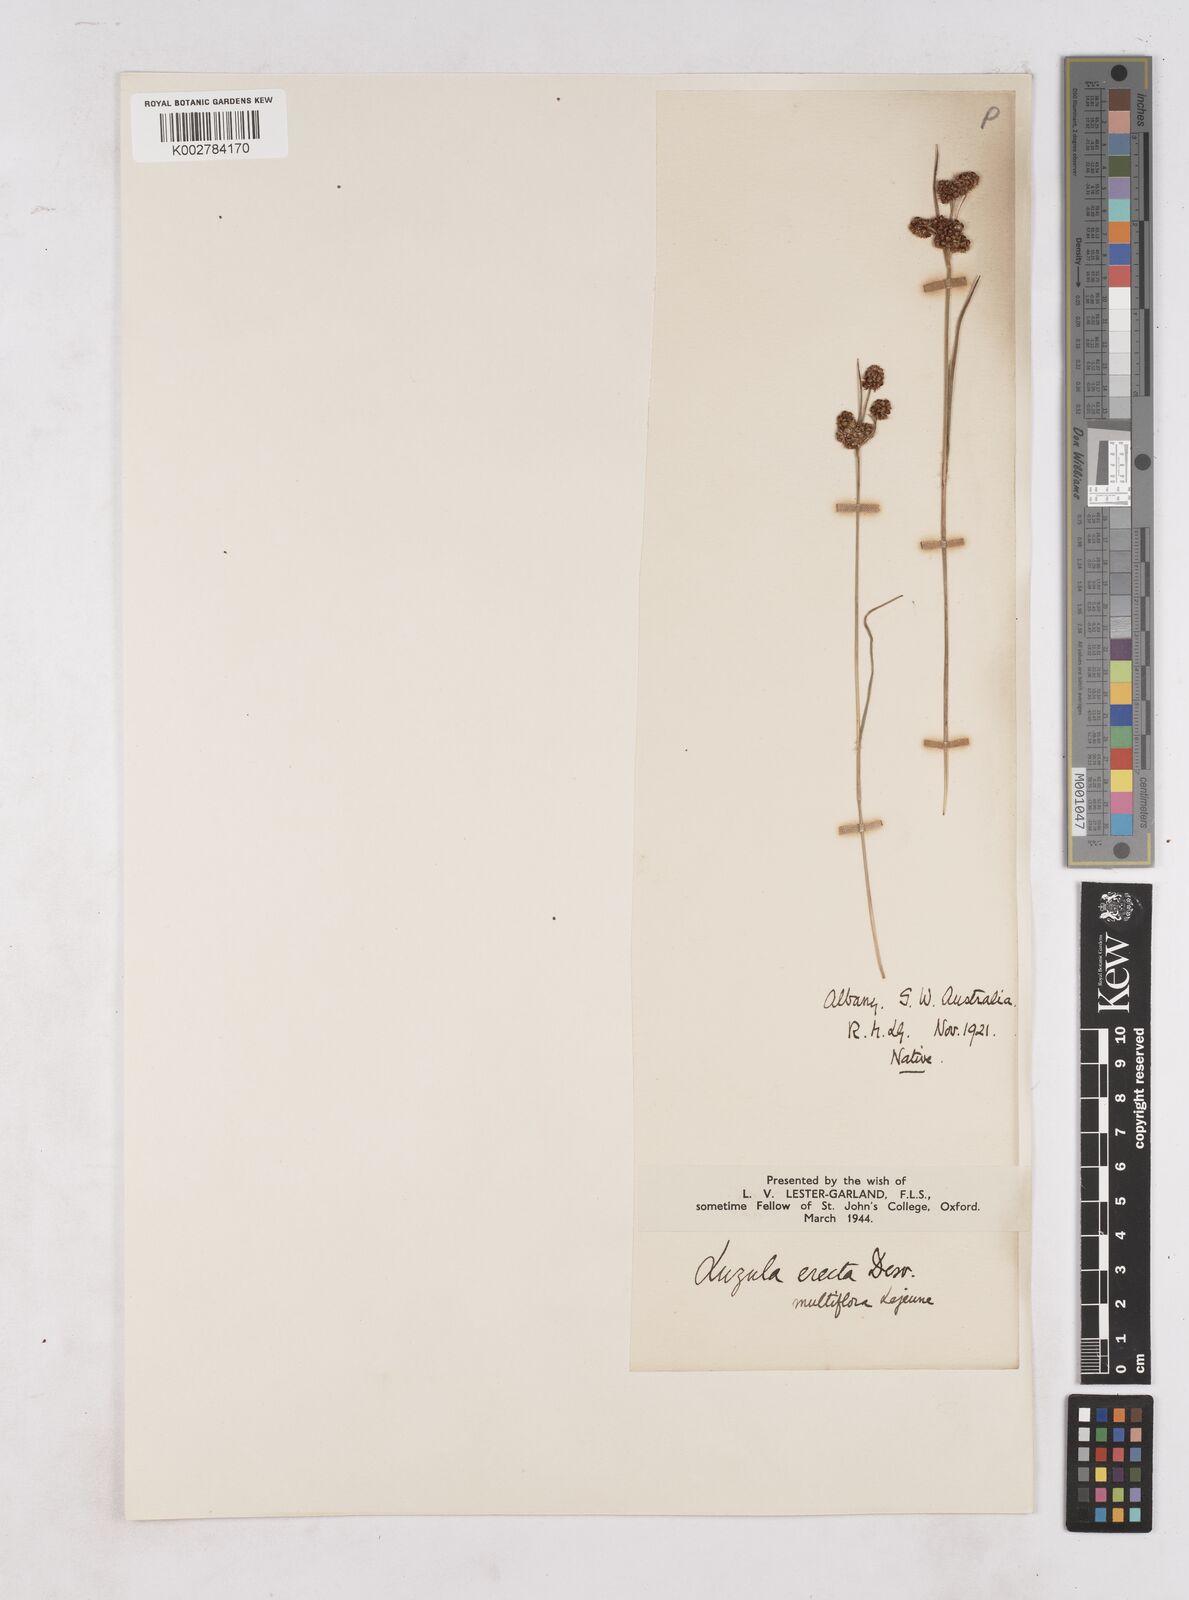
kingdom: Plantae
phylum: Tracheophyta
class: Liliopsida
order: Poales
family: Juncaceae
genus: Luzula
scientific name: Luzula campestris
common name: Field wood-rush
